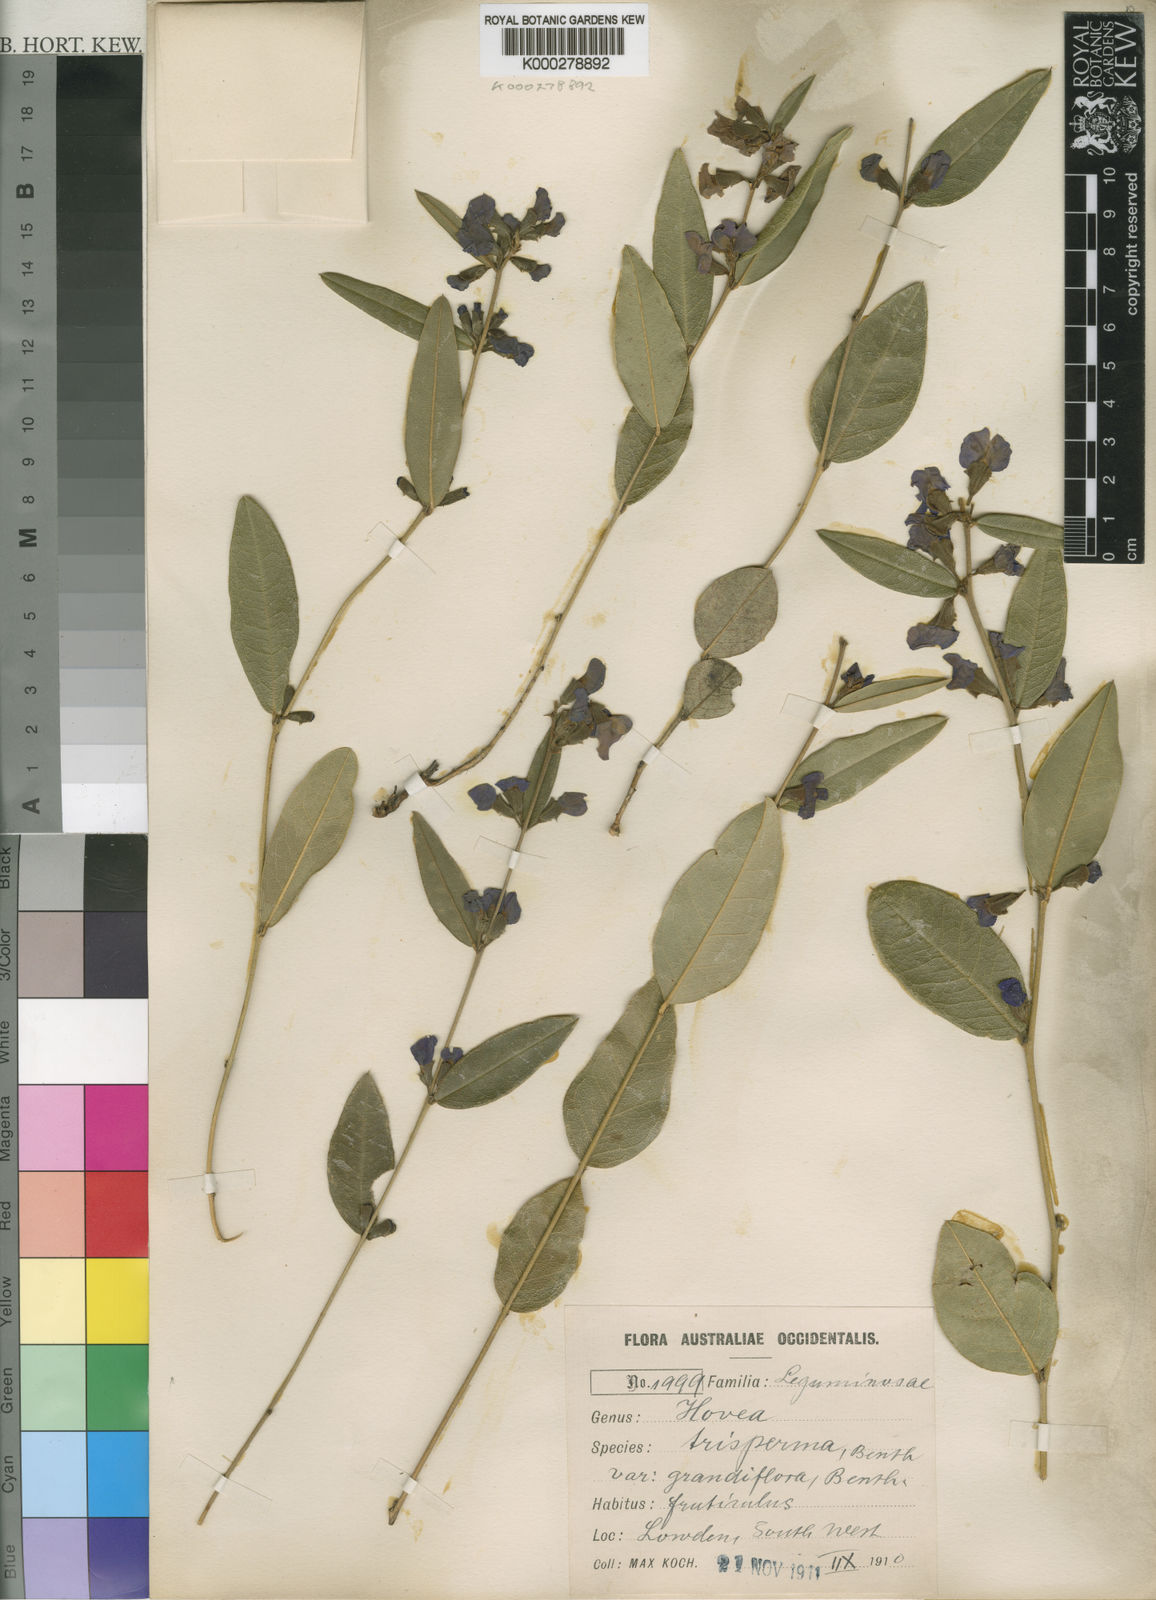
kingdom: Plantae
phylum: Tracheophyta
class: Magnoliopsida
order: Fabales
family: Fabaceae
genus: Hovea
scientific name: Hovea trisperma
